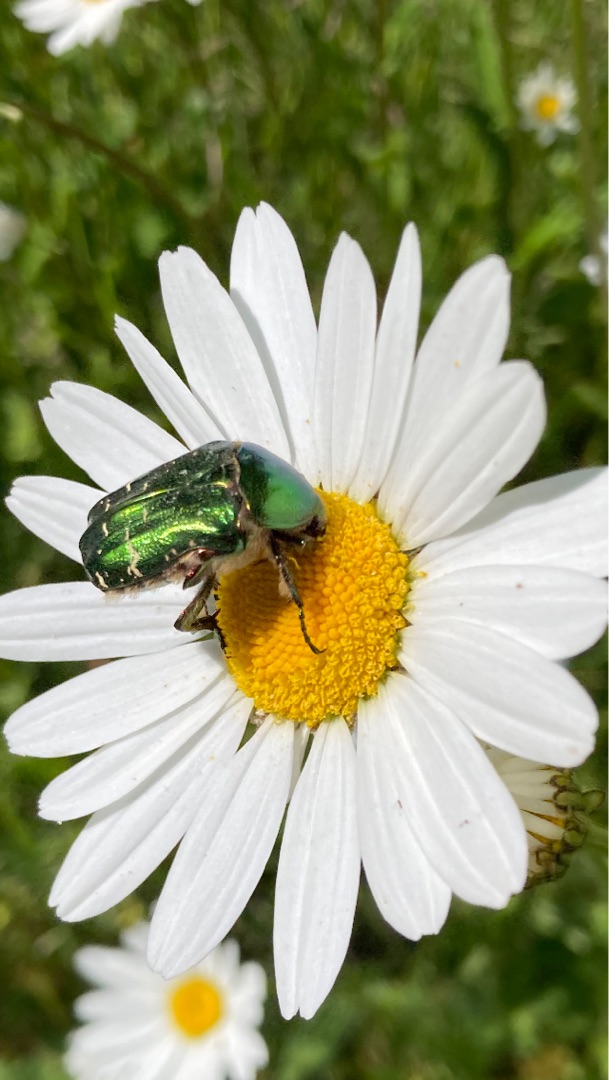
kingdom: Animalia
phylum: Arthropoda
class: Insecta
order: Coleoptera
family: Scarabaeidae
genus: Cetonia
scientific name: Cetonia aurata
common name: Grøn guldbasse
